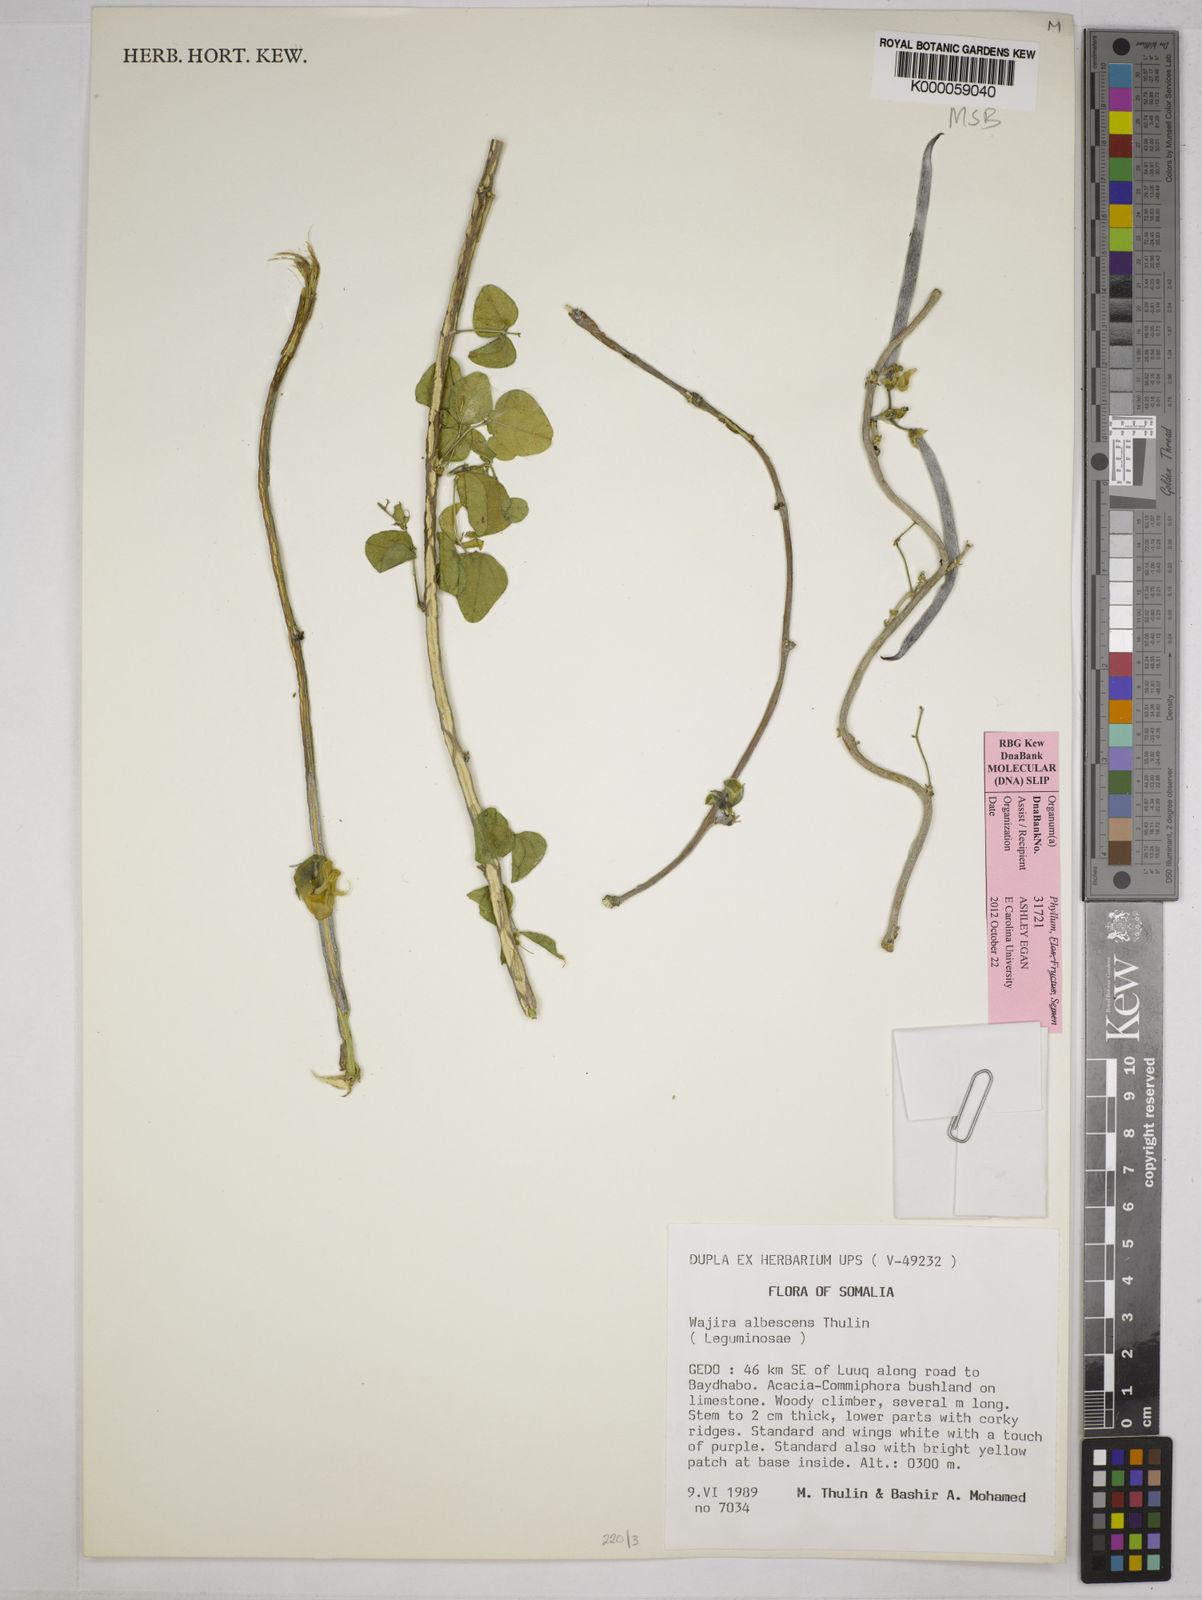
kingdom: Plantae
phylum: Tracheophyta
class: Magnoliopsida
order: Fabales
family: Fabaceae
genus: Wajira
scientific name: Wajira albescens
